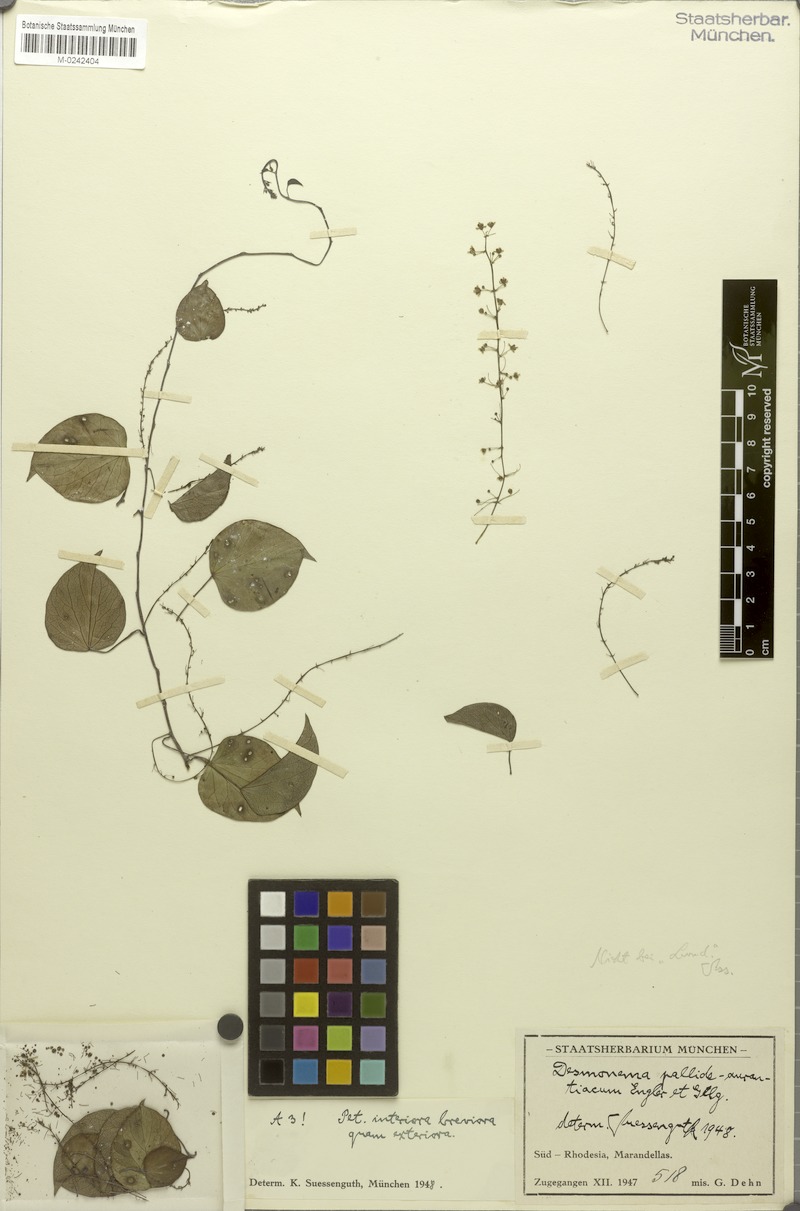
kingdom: Plantae
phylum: Tracheophyta
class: Magnoliopsida
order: Ranunculales
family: Menispermaceae
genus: Tinospora
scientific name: Tinospora caffra
